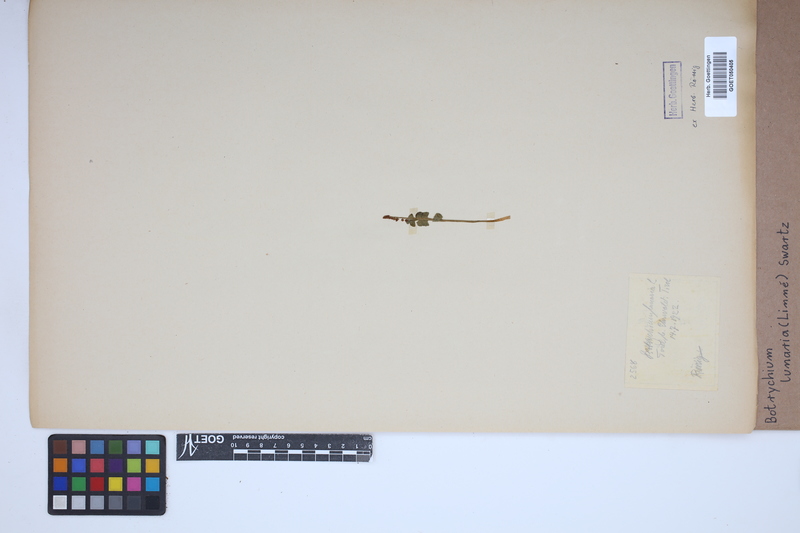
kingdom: Plantae
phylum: Tracheophyta
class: Polypodiopsida
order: Ophioglossales
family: Ophioglossaceae
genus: Botrychium
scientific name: Botrychium lunaria
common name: Moonwort
